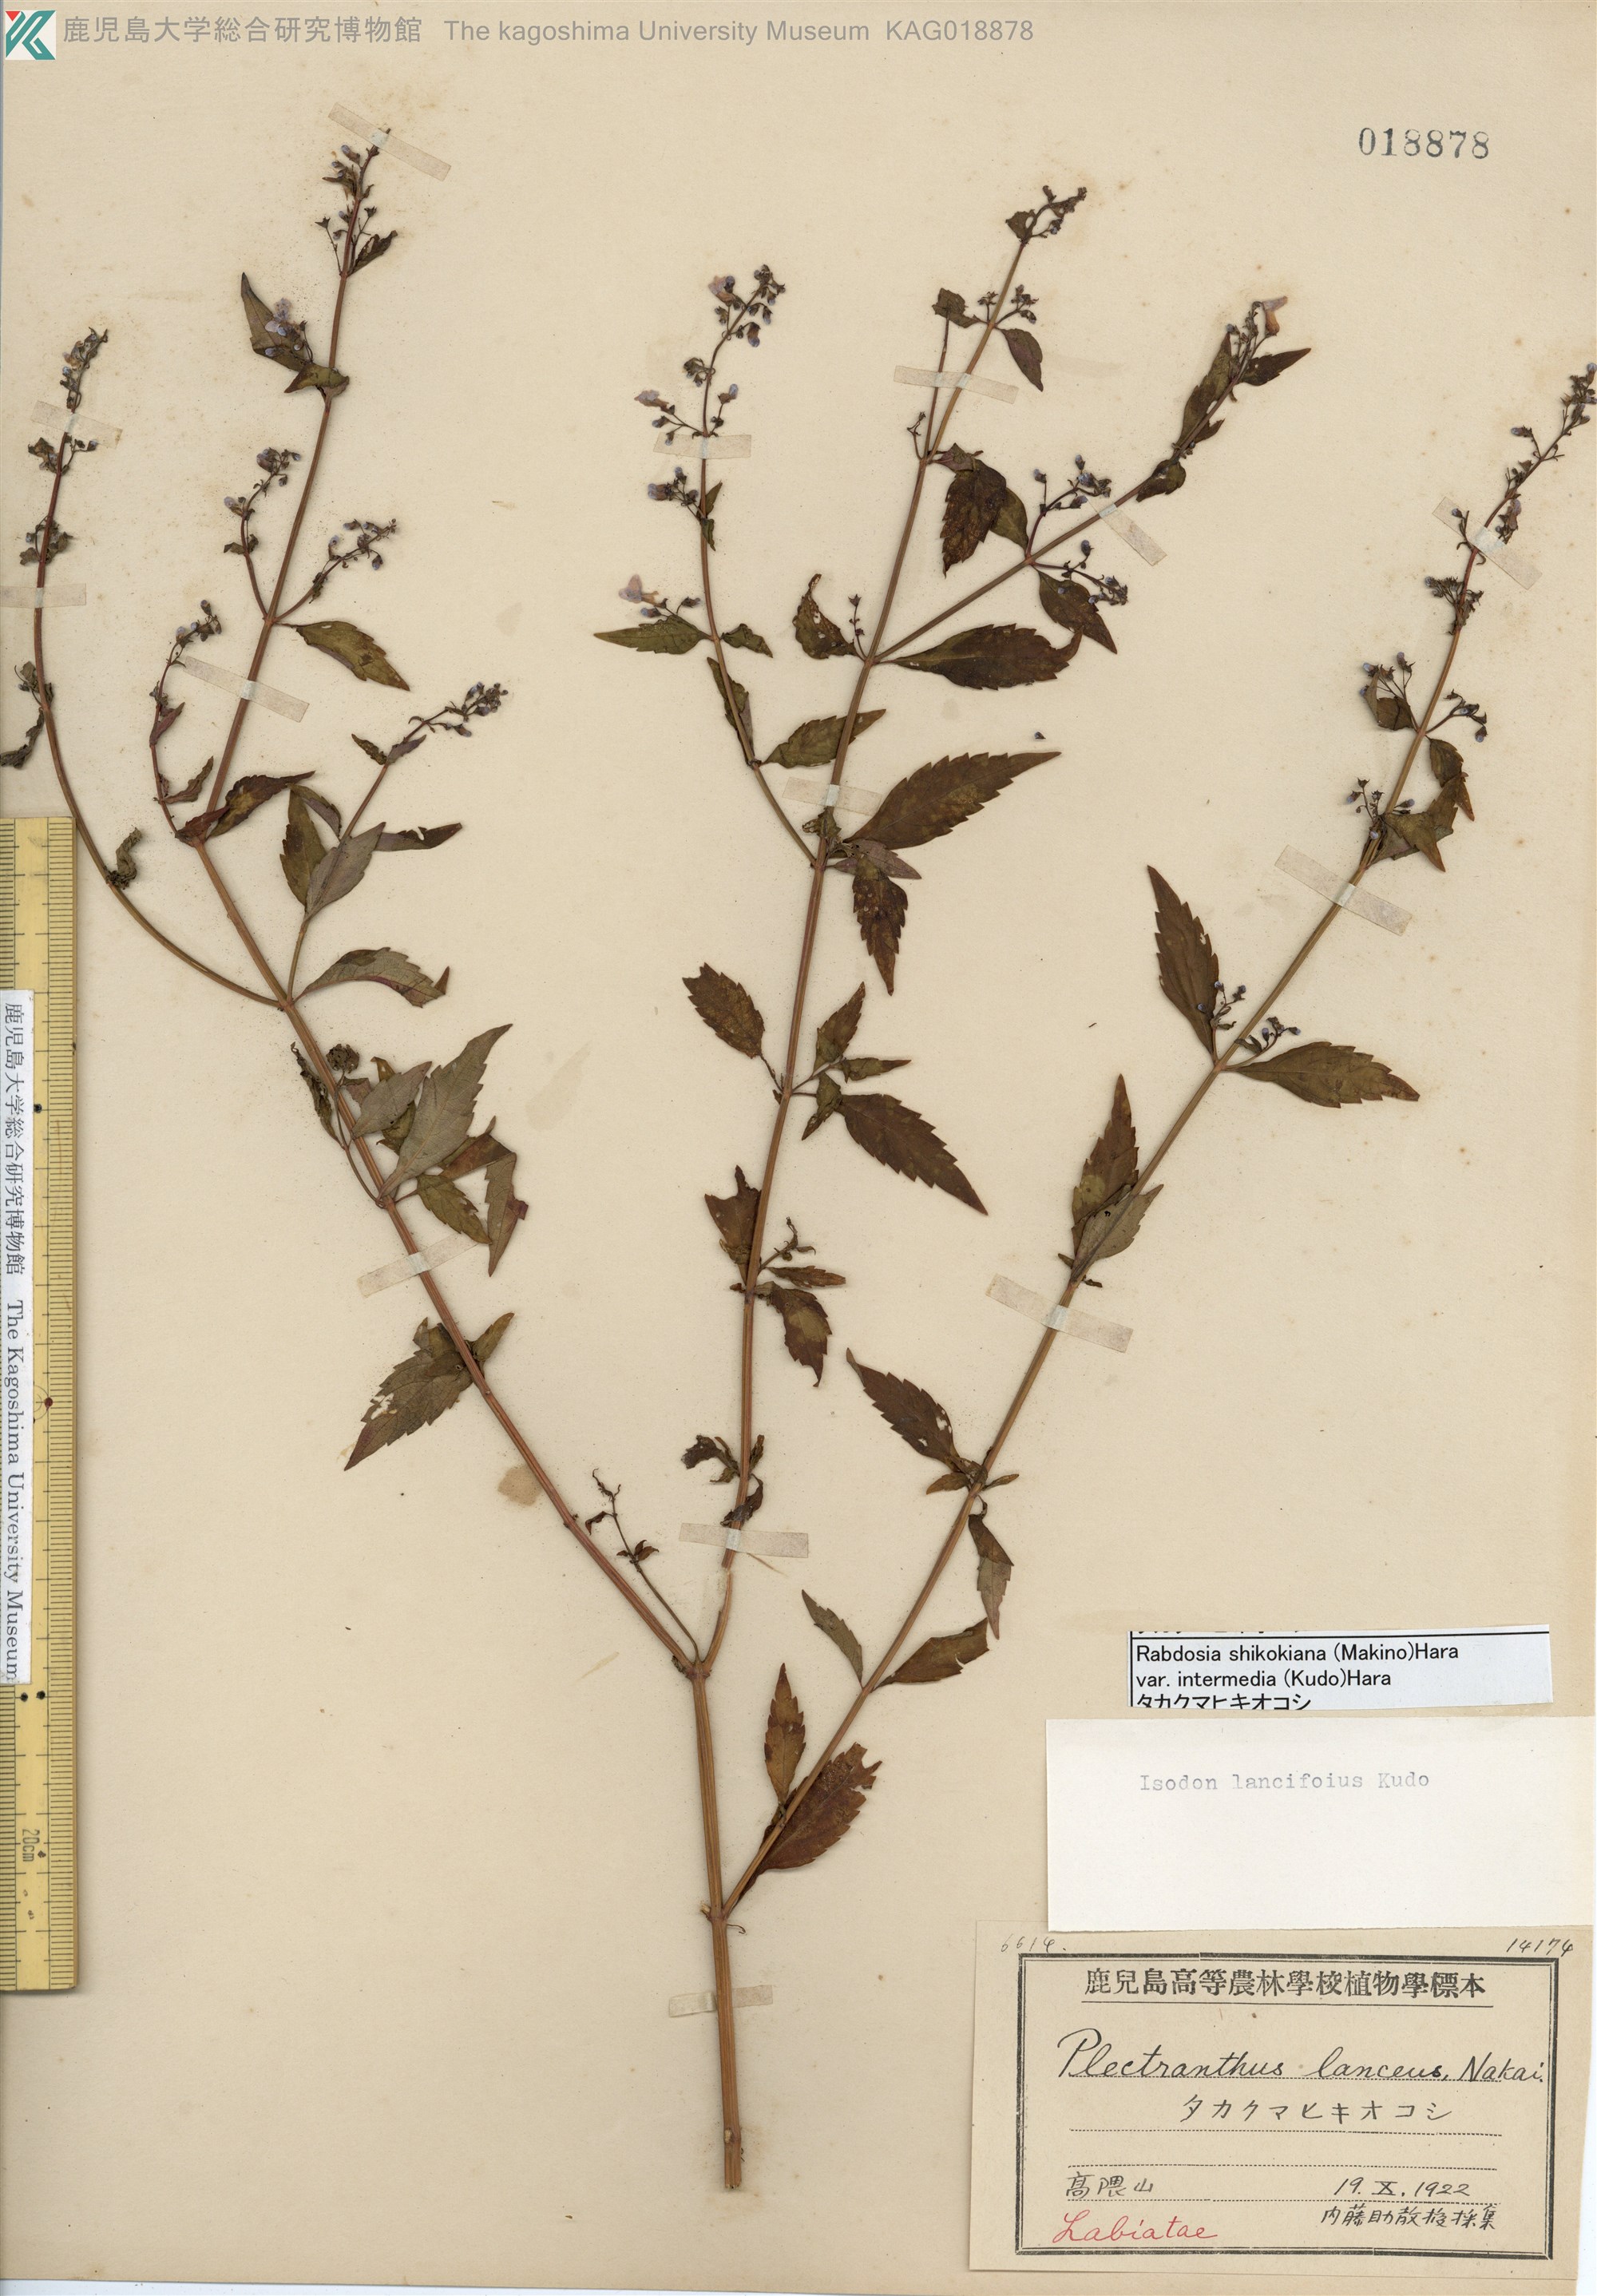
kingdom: Plantae
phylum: Tracheophyta
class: Magnoliopsida
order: Lamiales
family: Lamiaceae
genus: Isodon
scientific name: Isodon shikokianus
